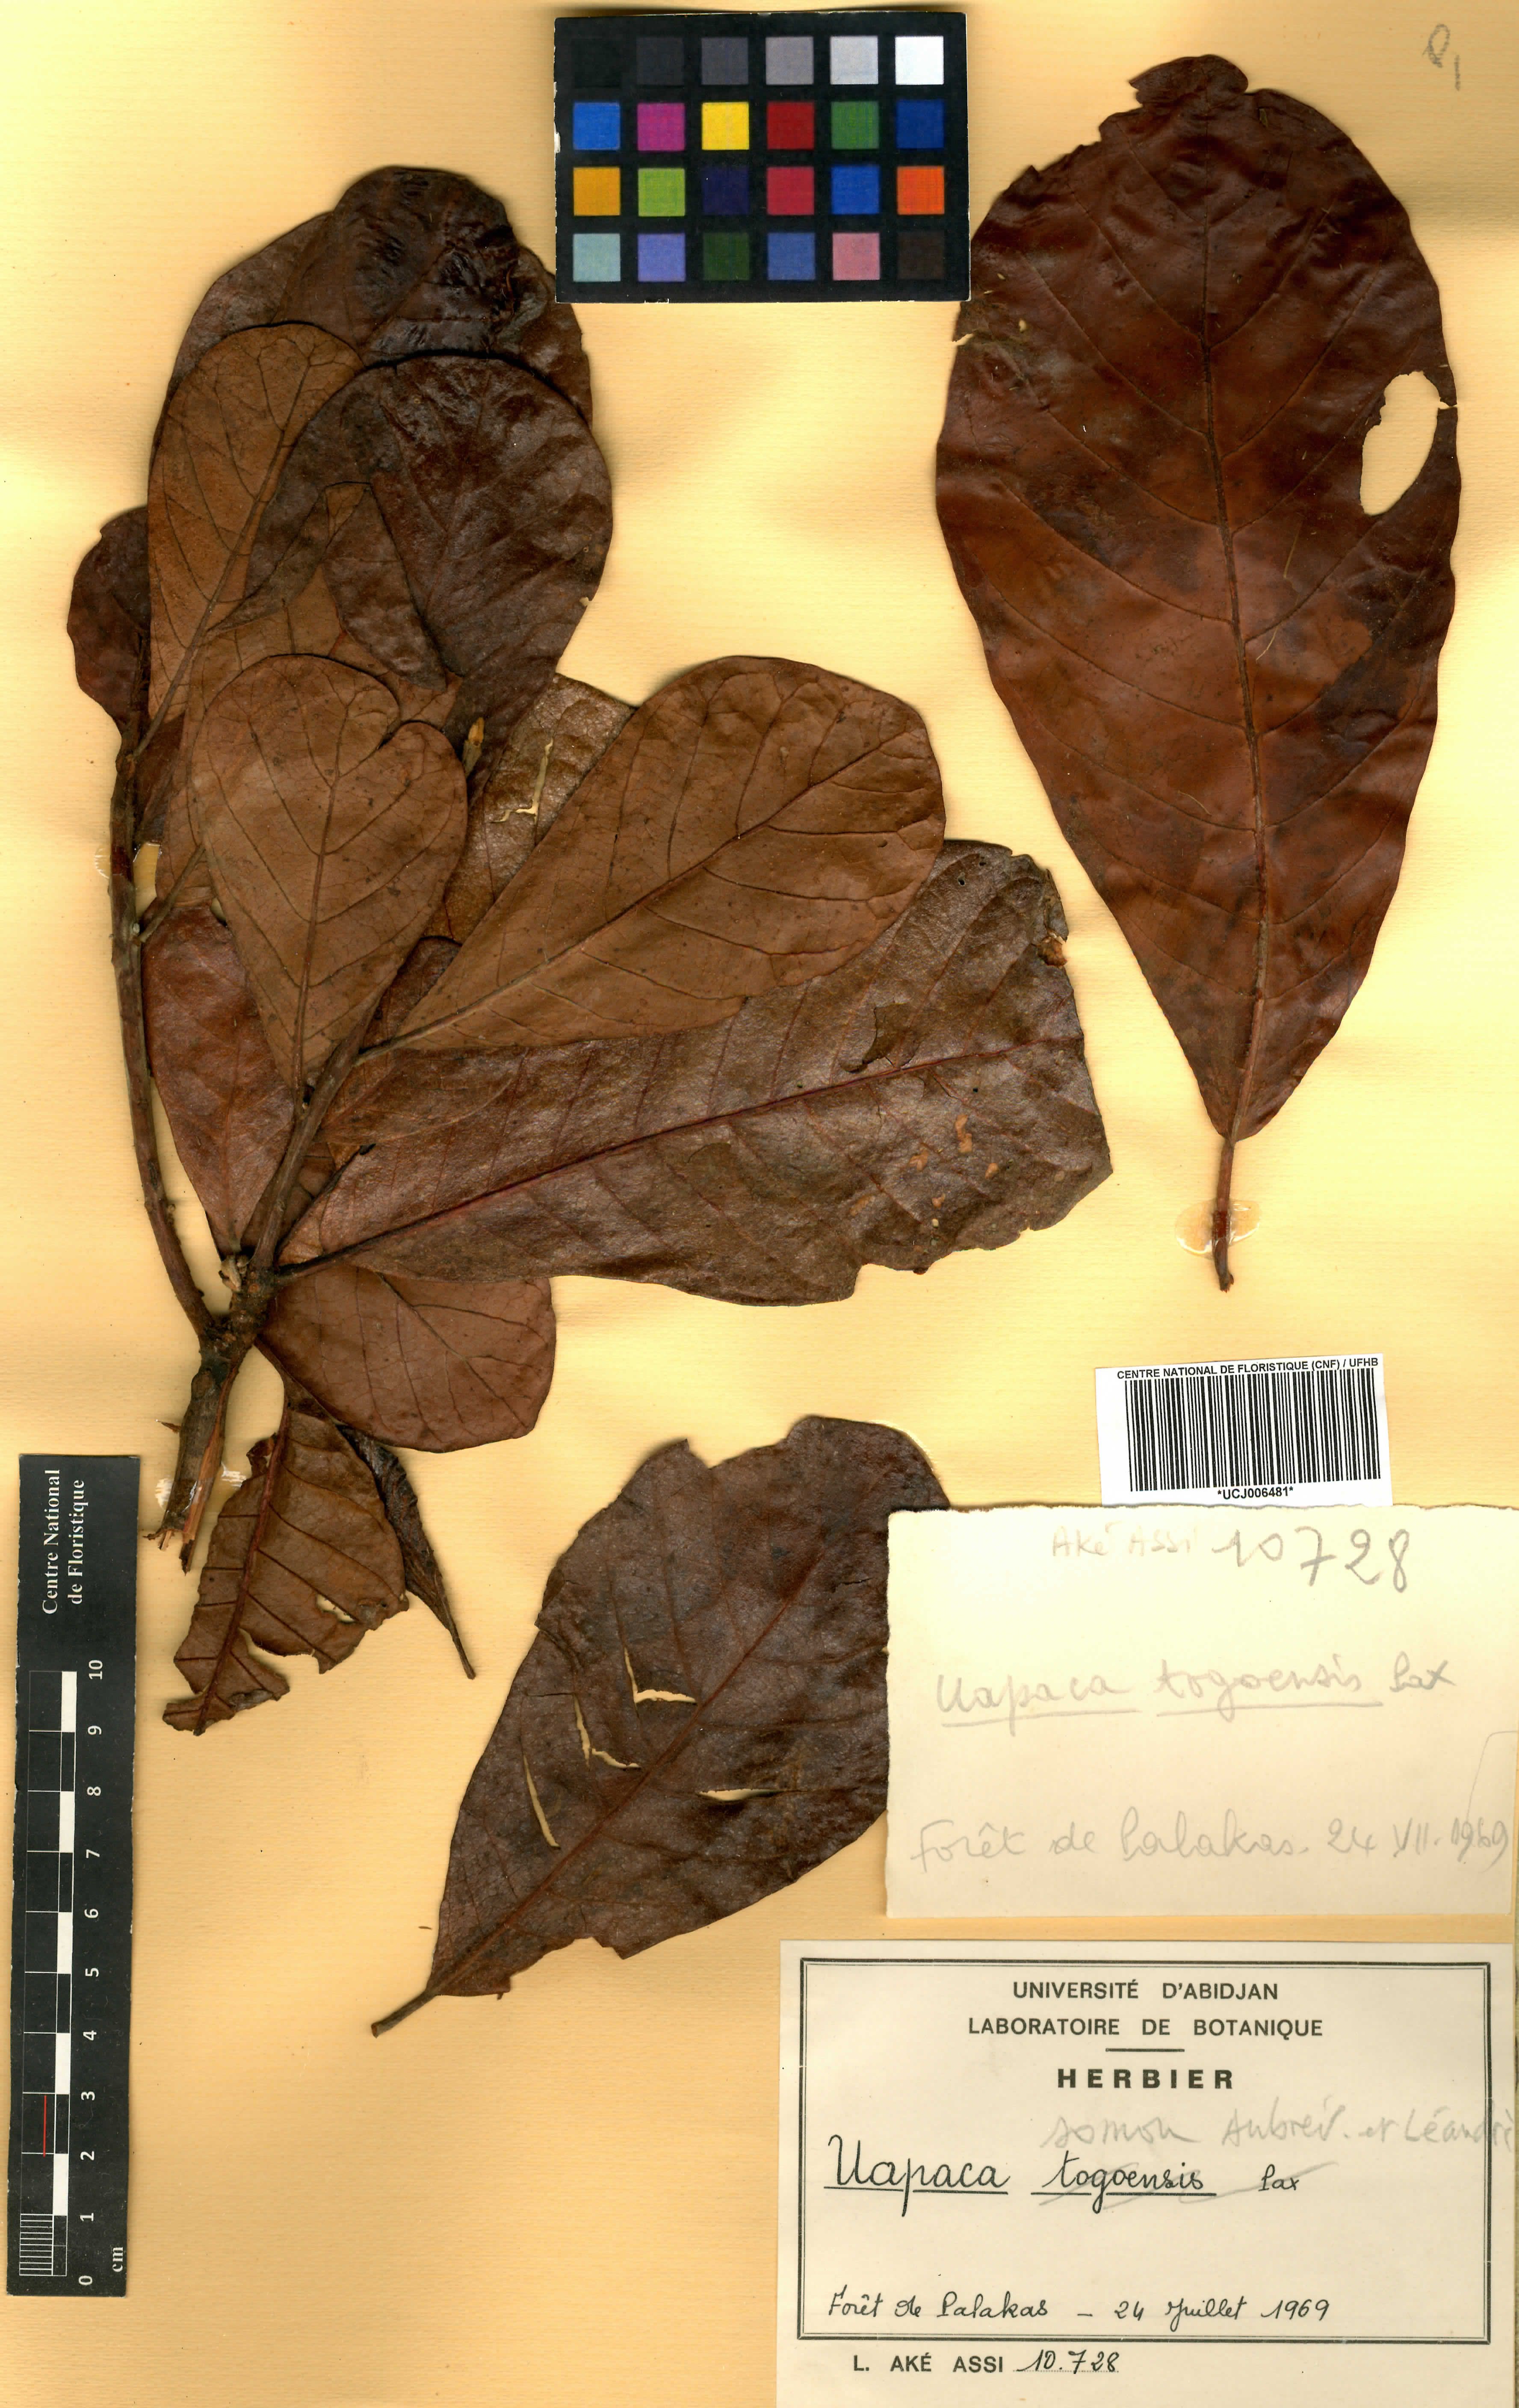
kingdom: Plantae
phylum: Tracheophyta
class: Magnoliopsida
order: Malpighiales
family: Phyllanthaceae
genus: Uapaca
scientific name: Uapaca togoensis
